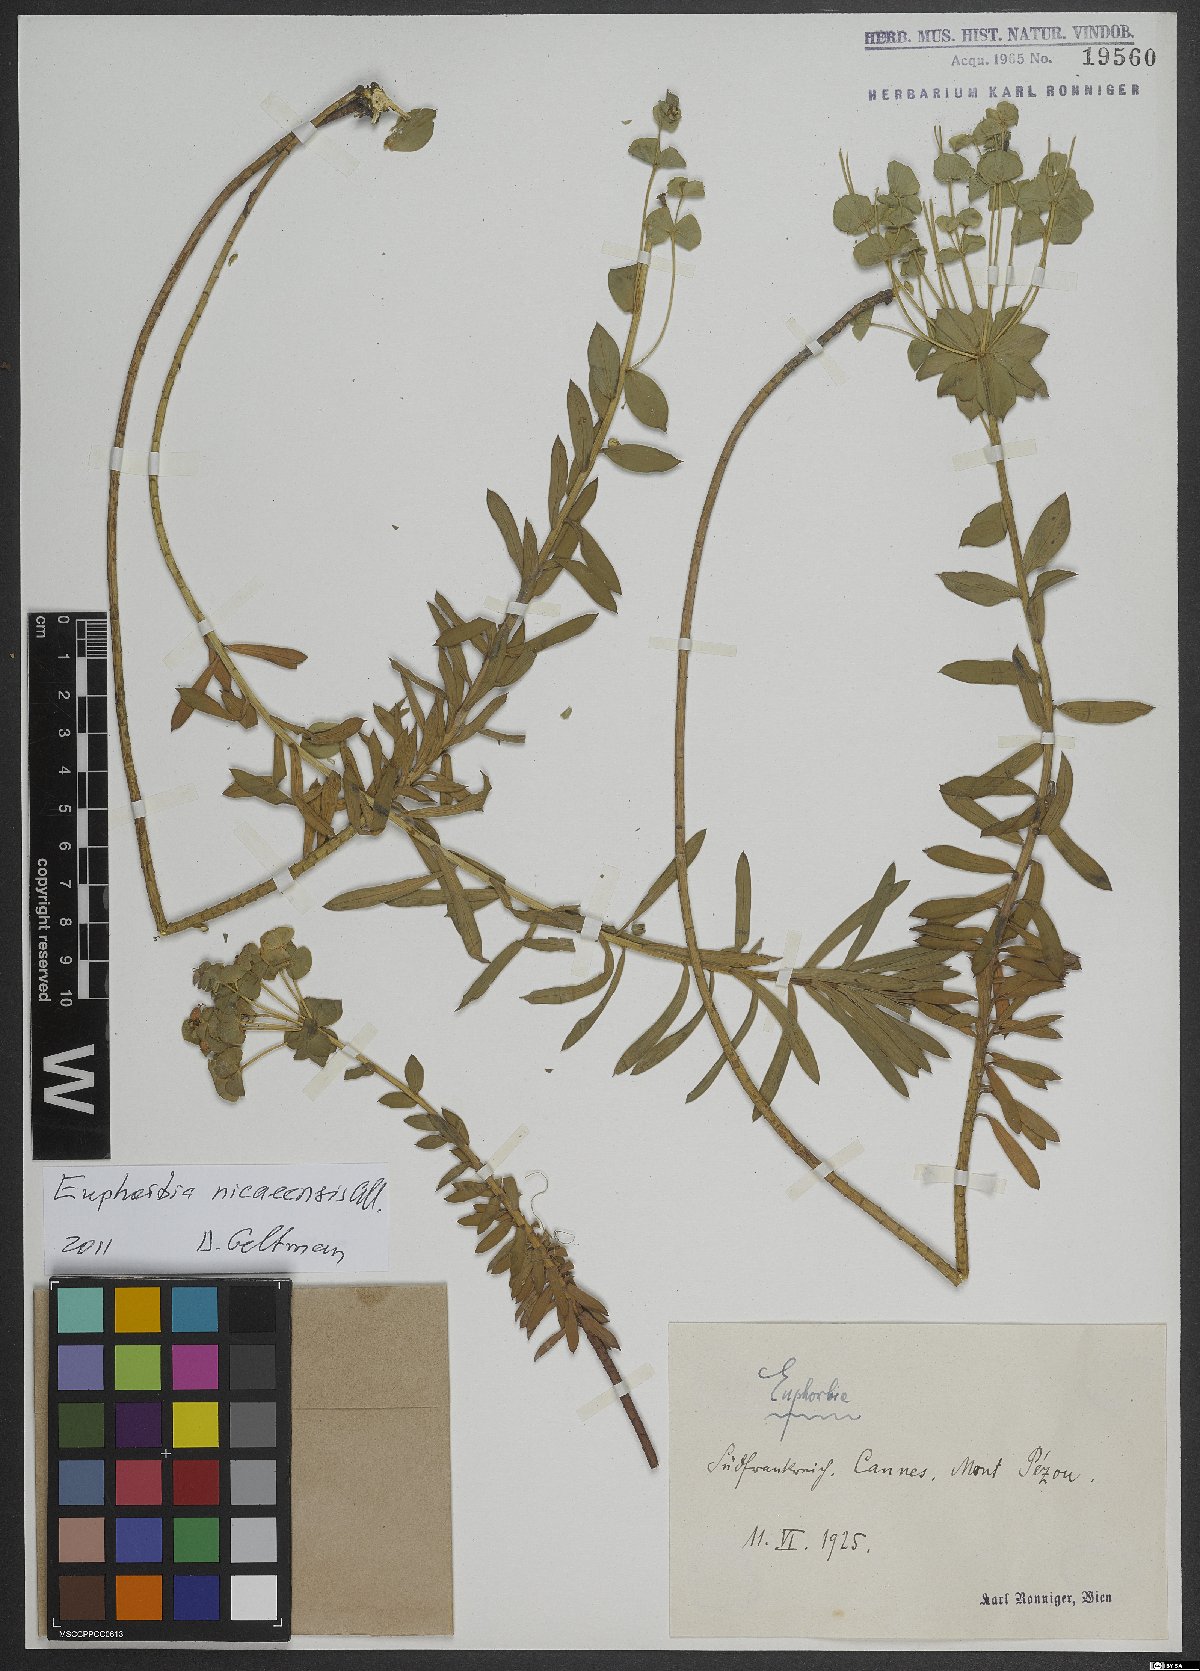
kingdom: Plantae
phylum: Tracheophyta
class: Magnoliopsida
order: Malpighiales
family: Euphorbiaceae
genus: Euphorbia
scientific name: Euphorbia nicaeensis
